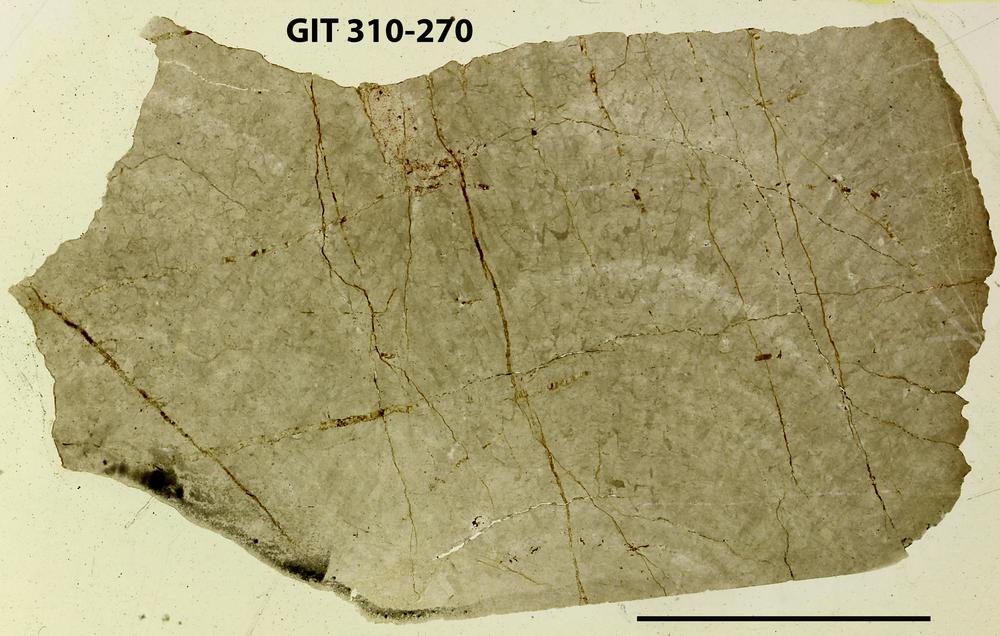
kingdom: Animalia
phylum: Porifera
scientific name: Porifera
